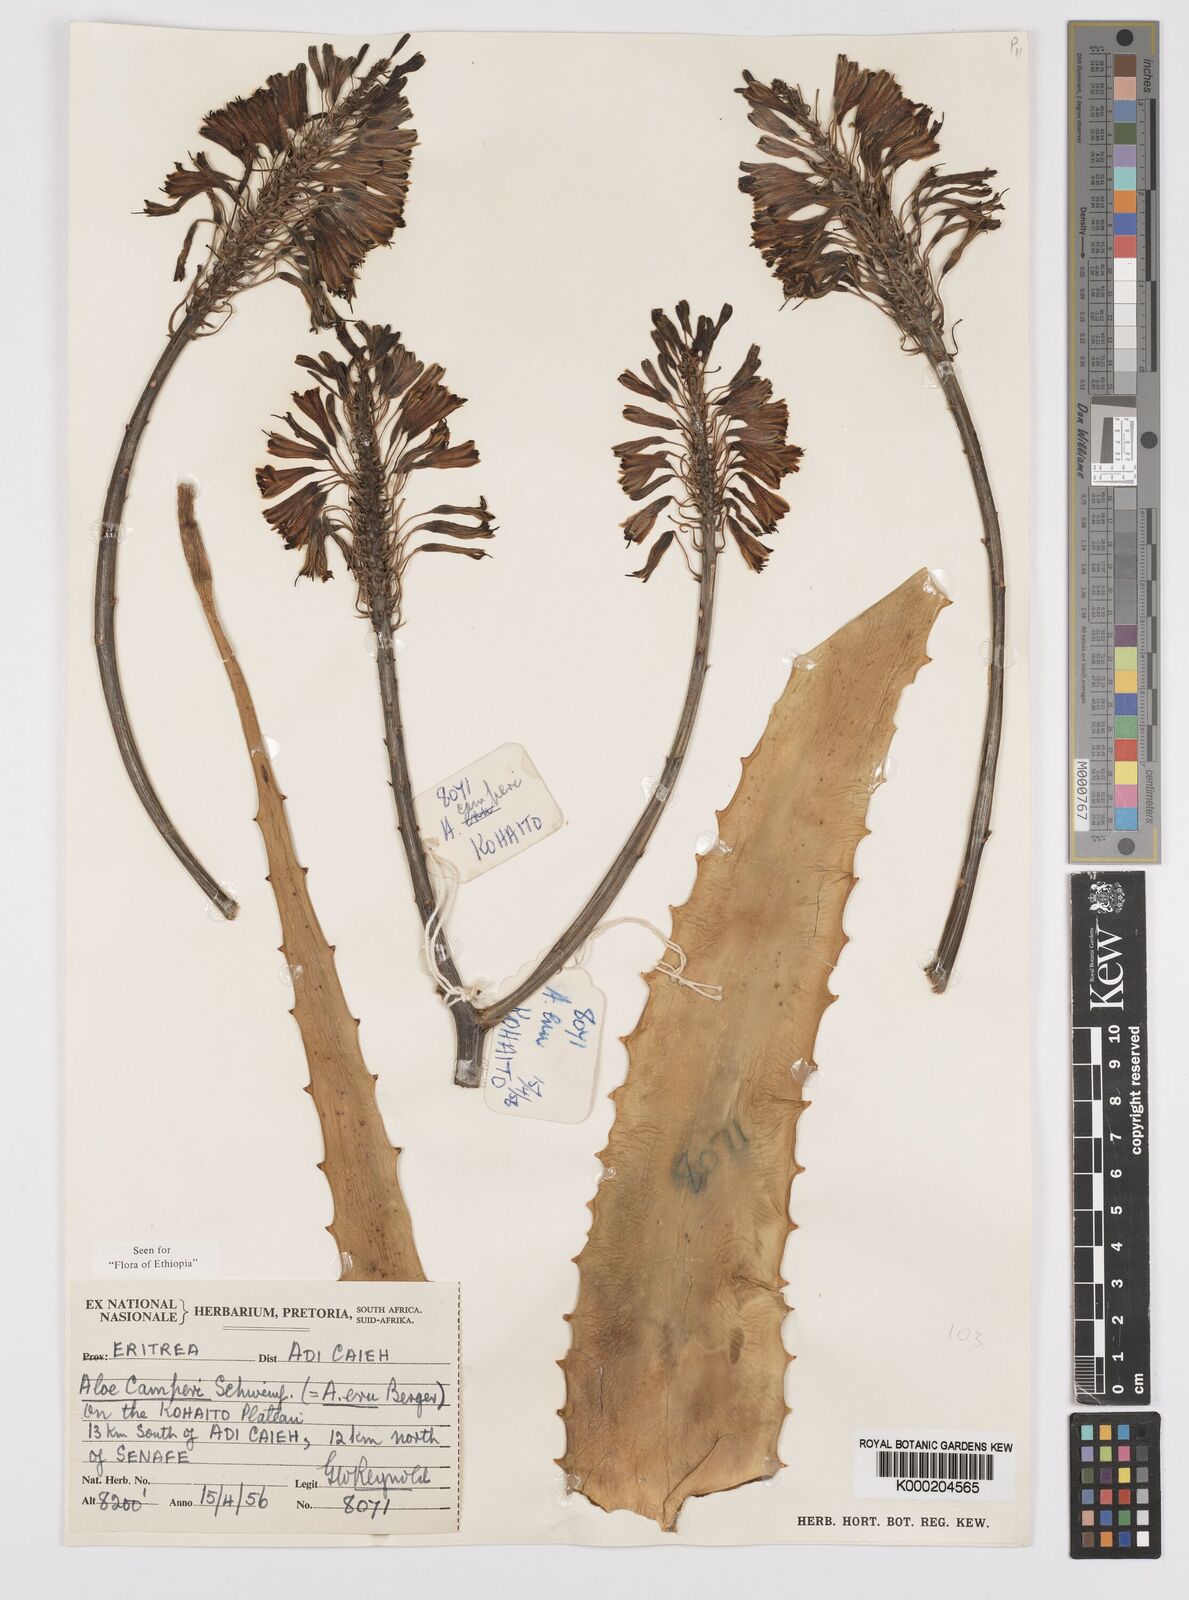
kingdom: Plantae
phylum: Tracheophyta
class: Liliopsida
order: Asparagales
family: Asphodelaceae
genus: Aloe
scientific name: Aloe camperi
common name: Camper's aloe
